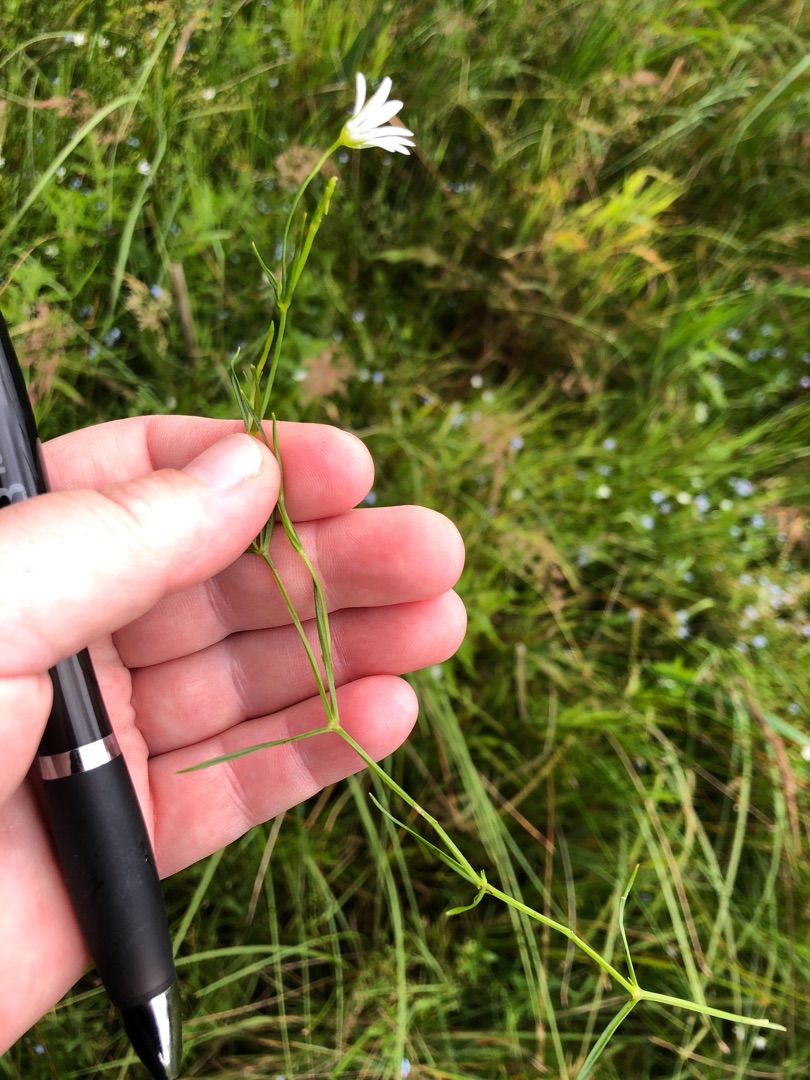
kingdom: Plantae
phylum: Tracheophyta
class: Magnoliopsida
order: Caryophyllales
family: Caryophyllaceae
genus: Stellaria
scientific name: Stellaria palustris
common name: Kær-fladstjerne
